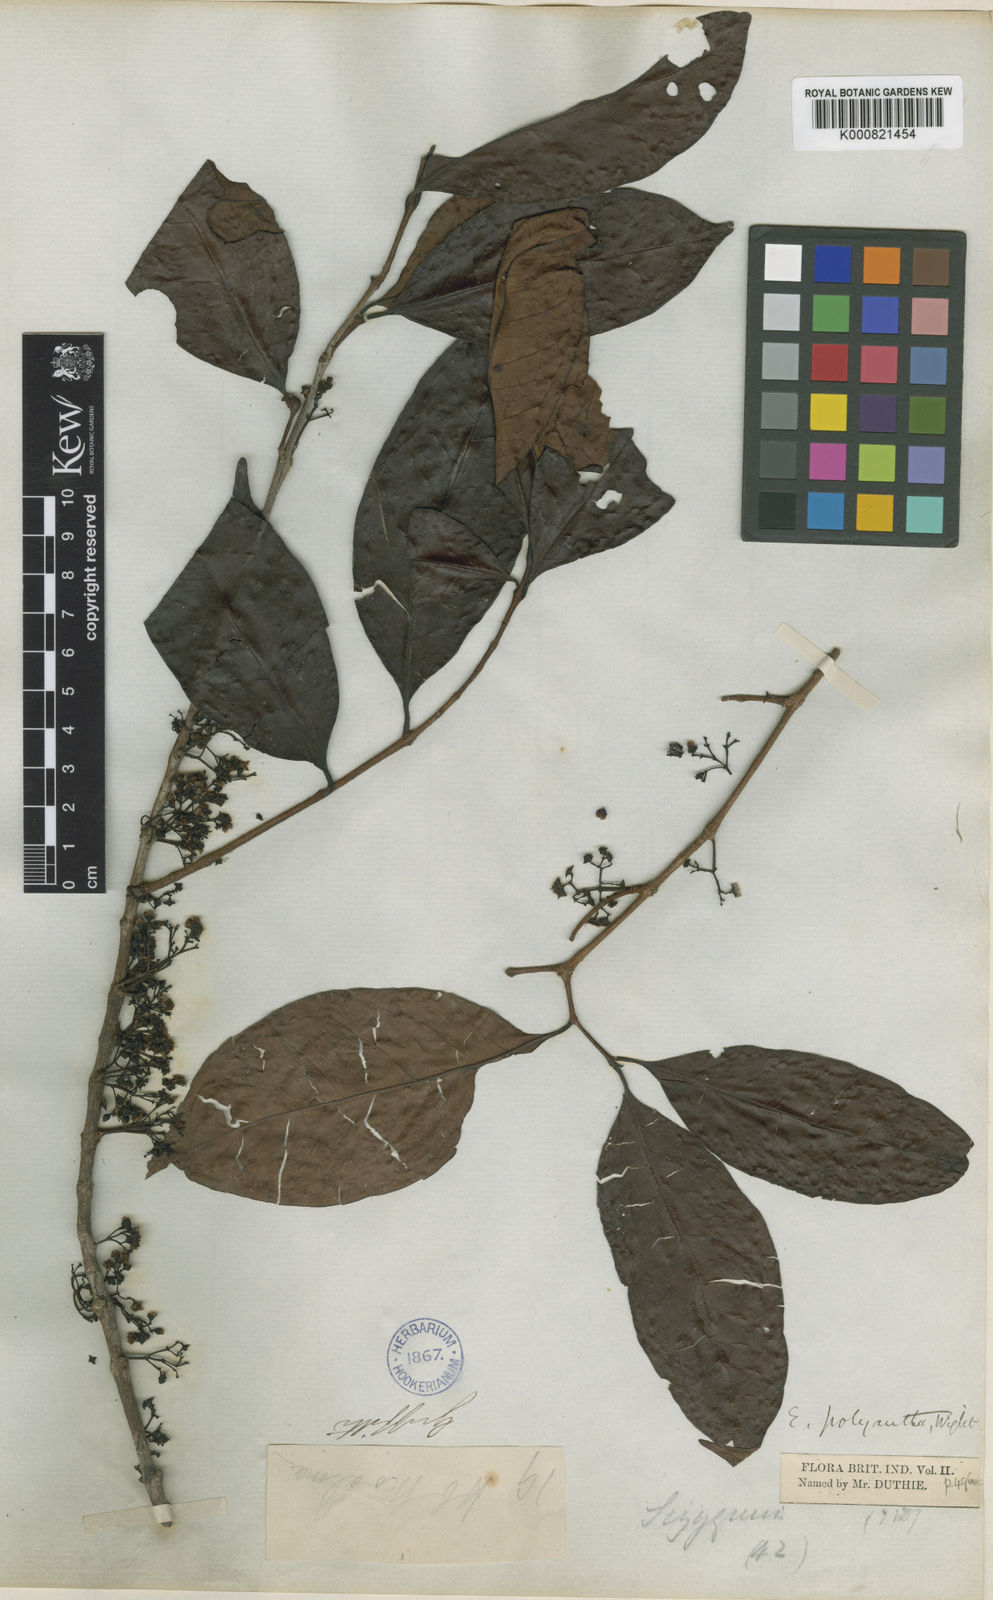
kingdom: Plantae
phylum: Tracheophyta
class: Magnoliopsida
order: Myrtales
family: Myrtaceae
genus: Syzygium
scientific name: Syzygium polyanthum
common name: Indonesian bayleaf
